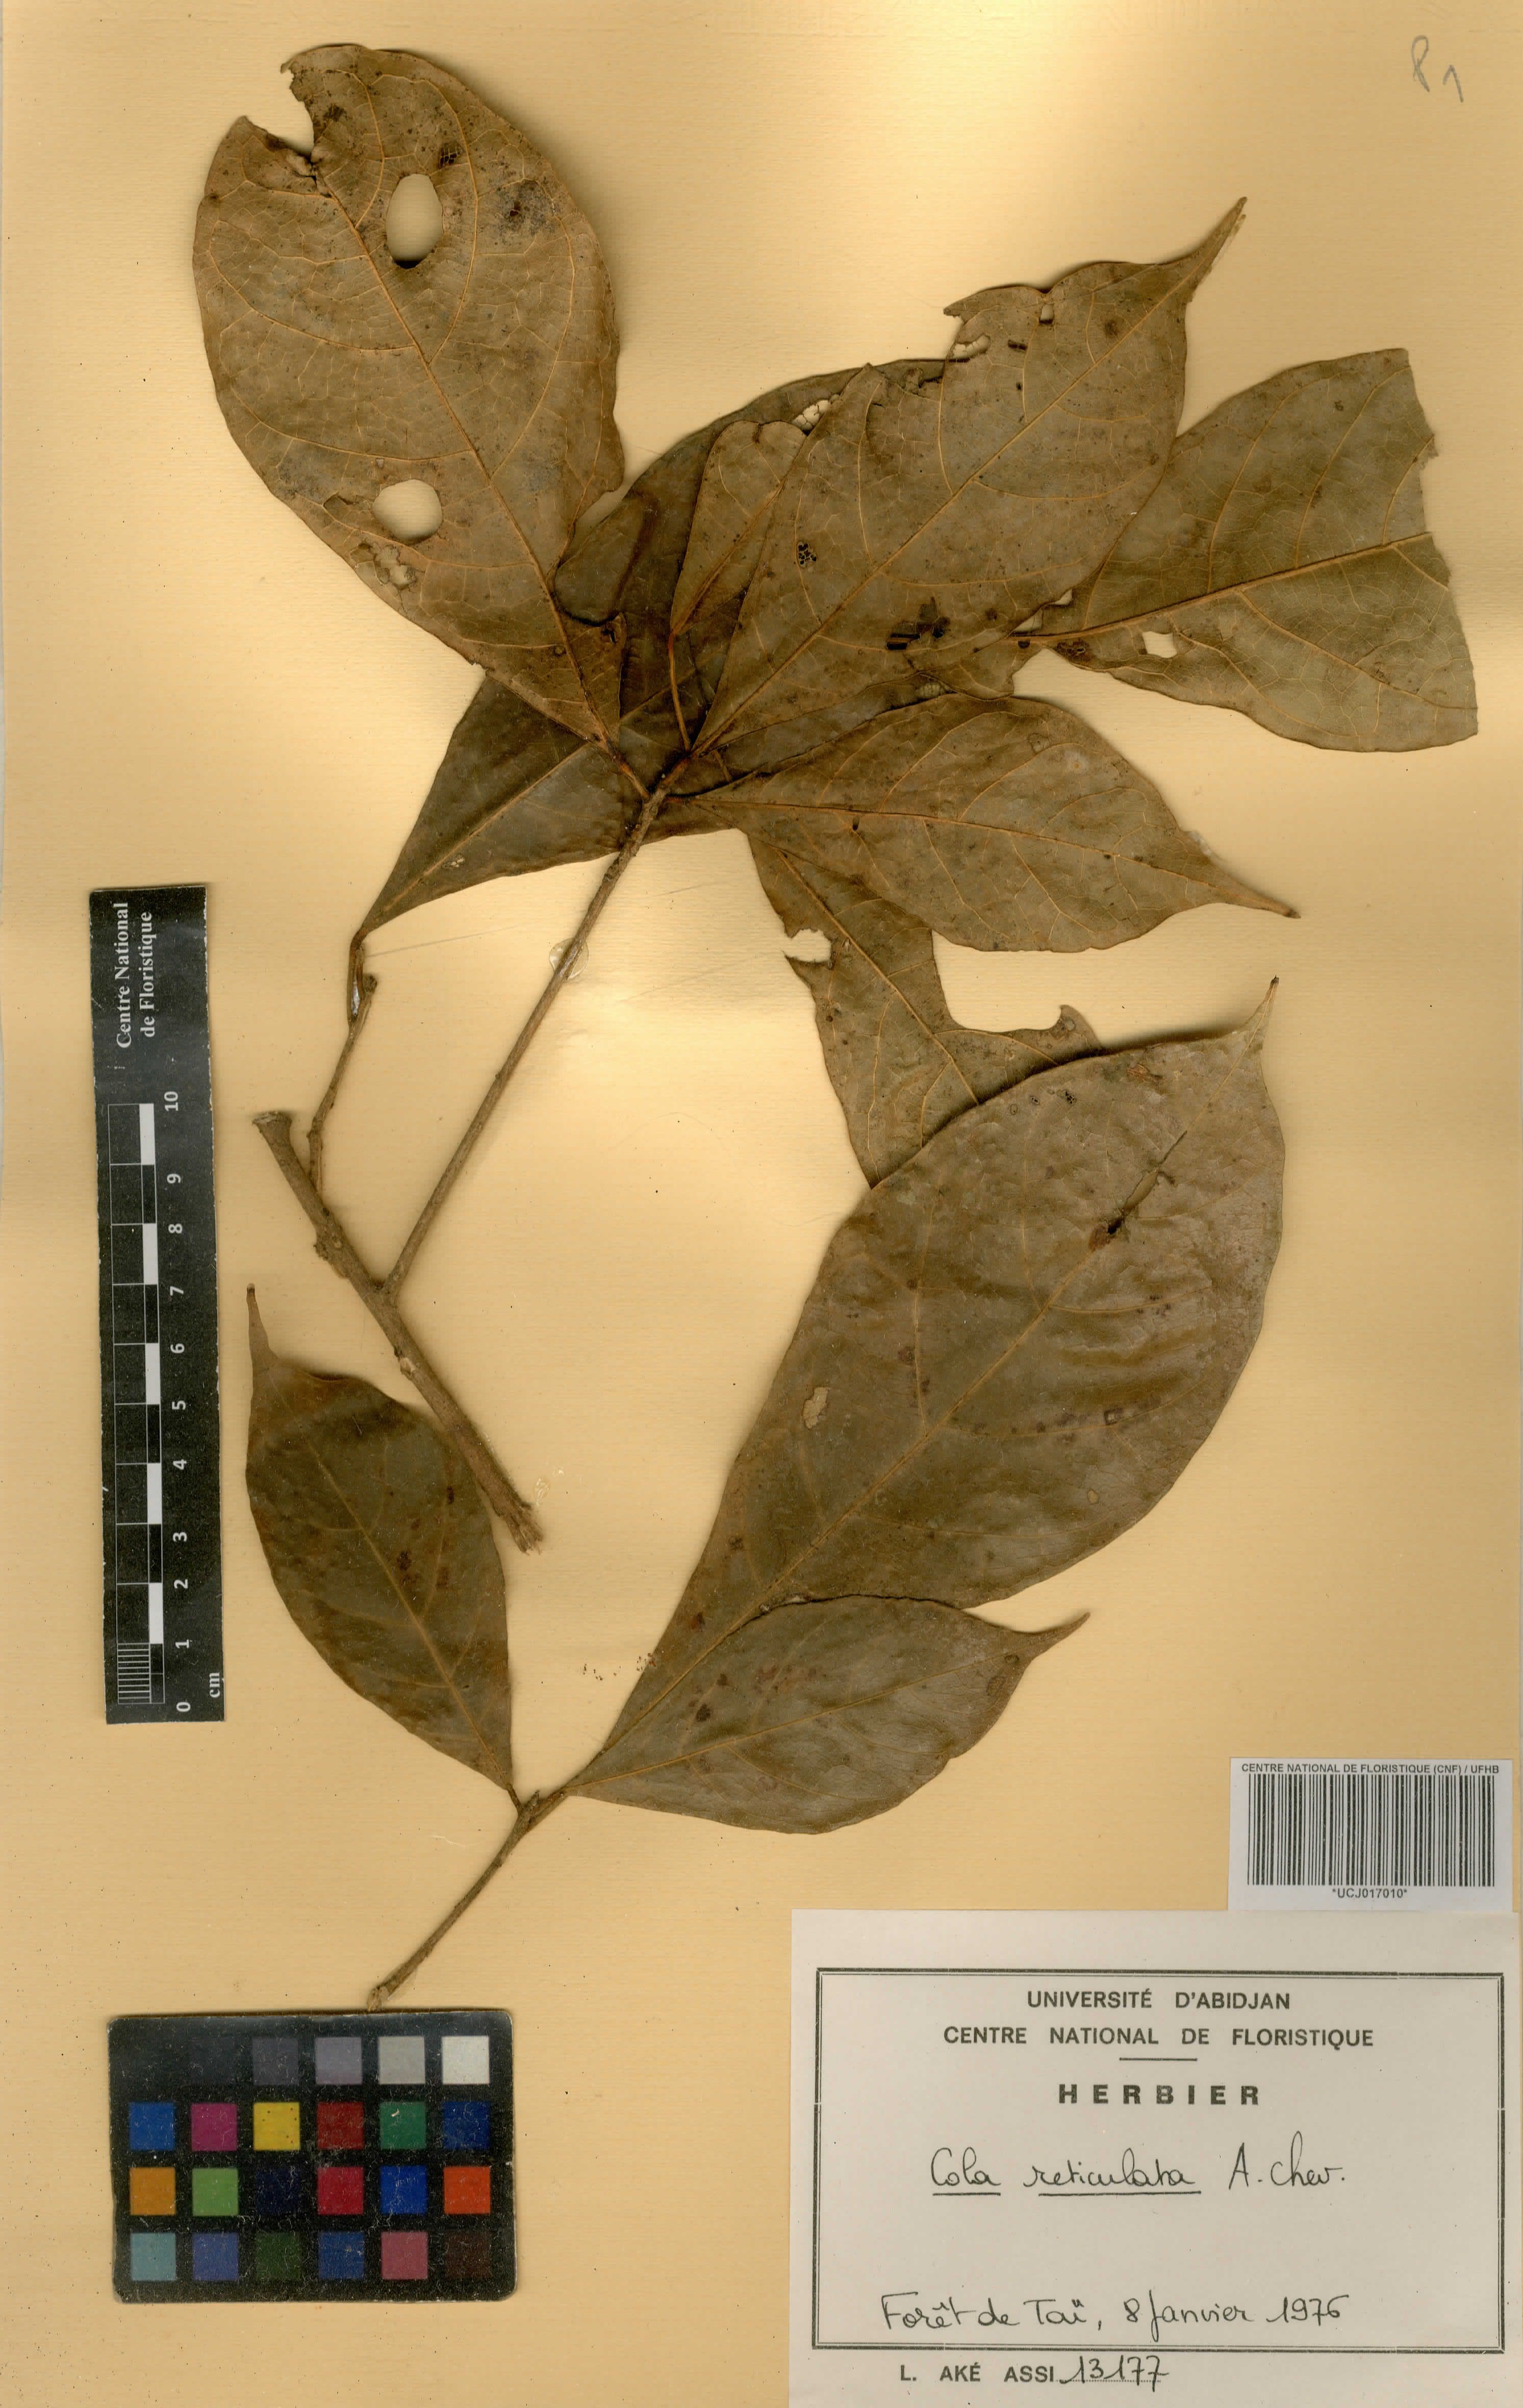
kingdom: Plantae
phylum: Tracheophyta
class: Magnoliopsida
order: Malvales
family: Malvaceae
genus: Cola
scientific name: Cola reticulata
